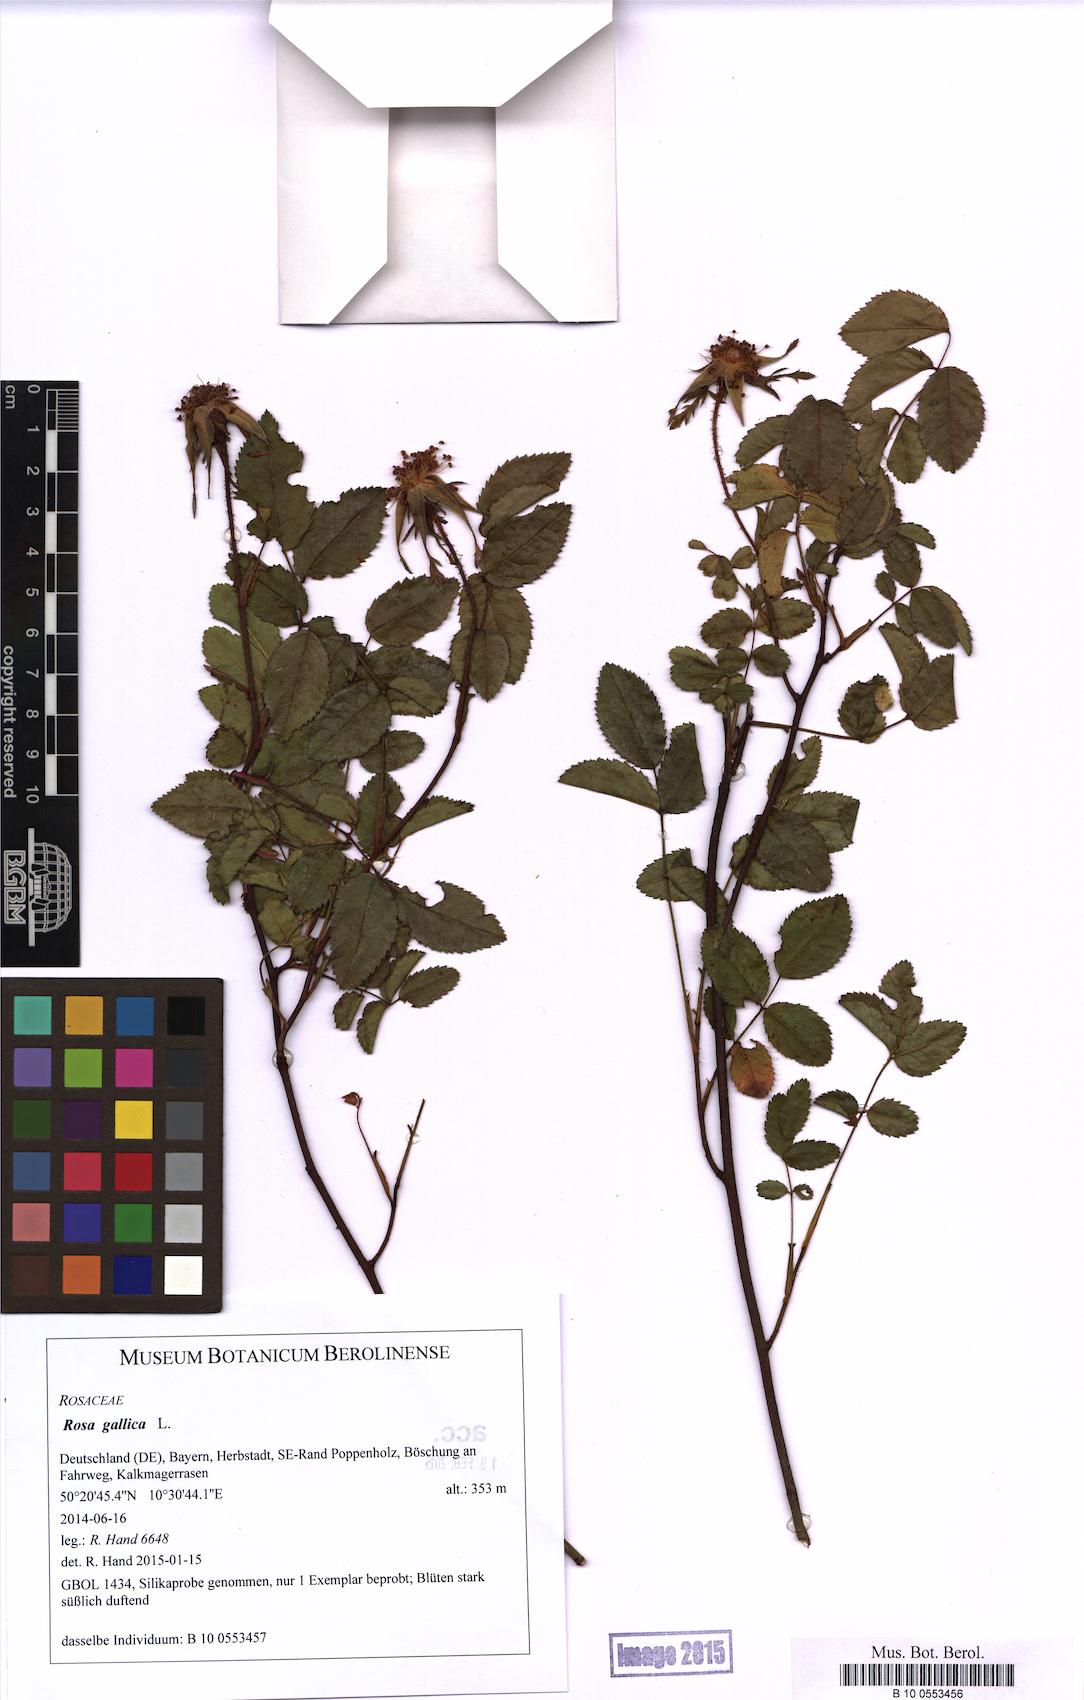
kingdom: Plantae
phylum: Tracheophyta
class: Magnoliopsida
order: Rosales
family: Rosaceae
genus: Rosa
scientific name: Rosa gallica
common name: French rose
